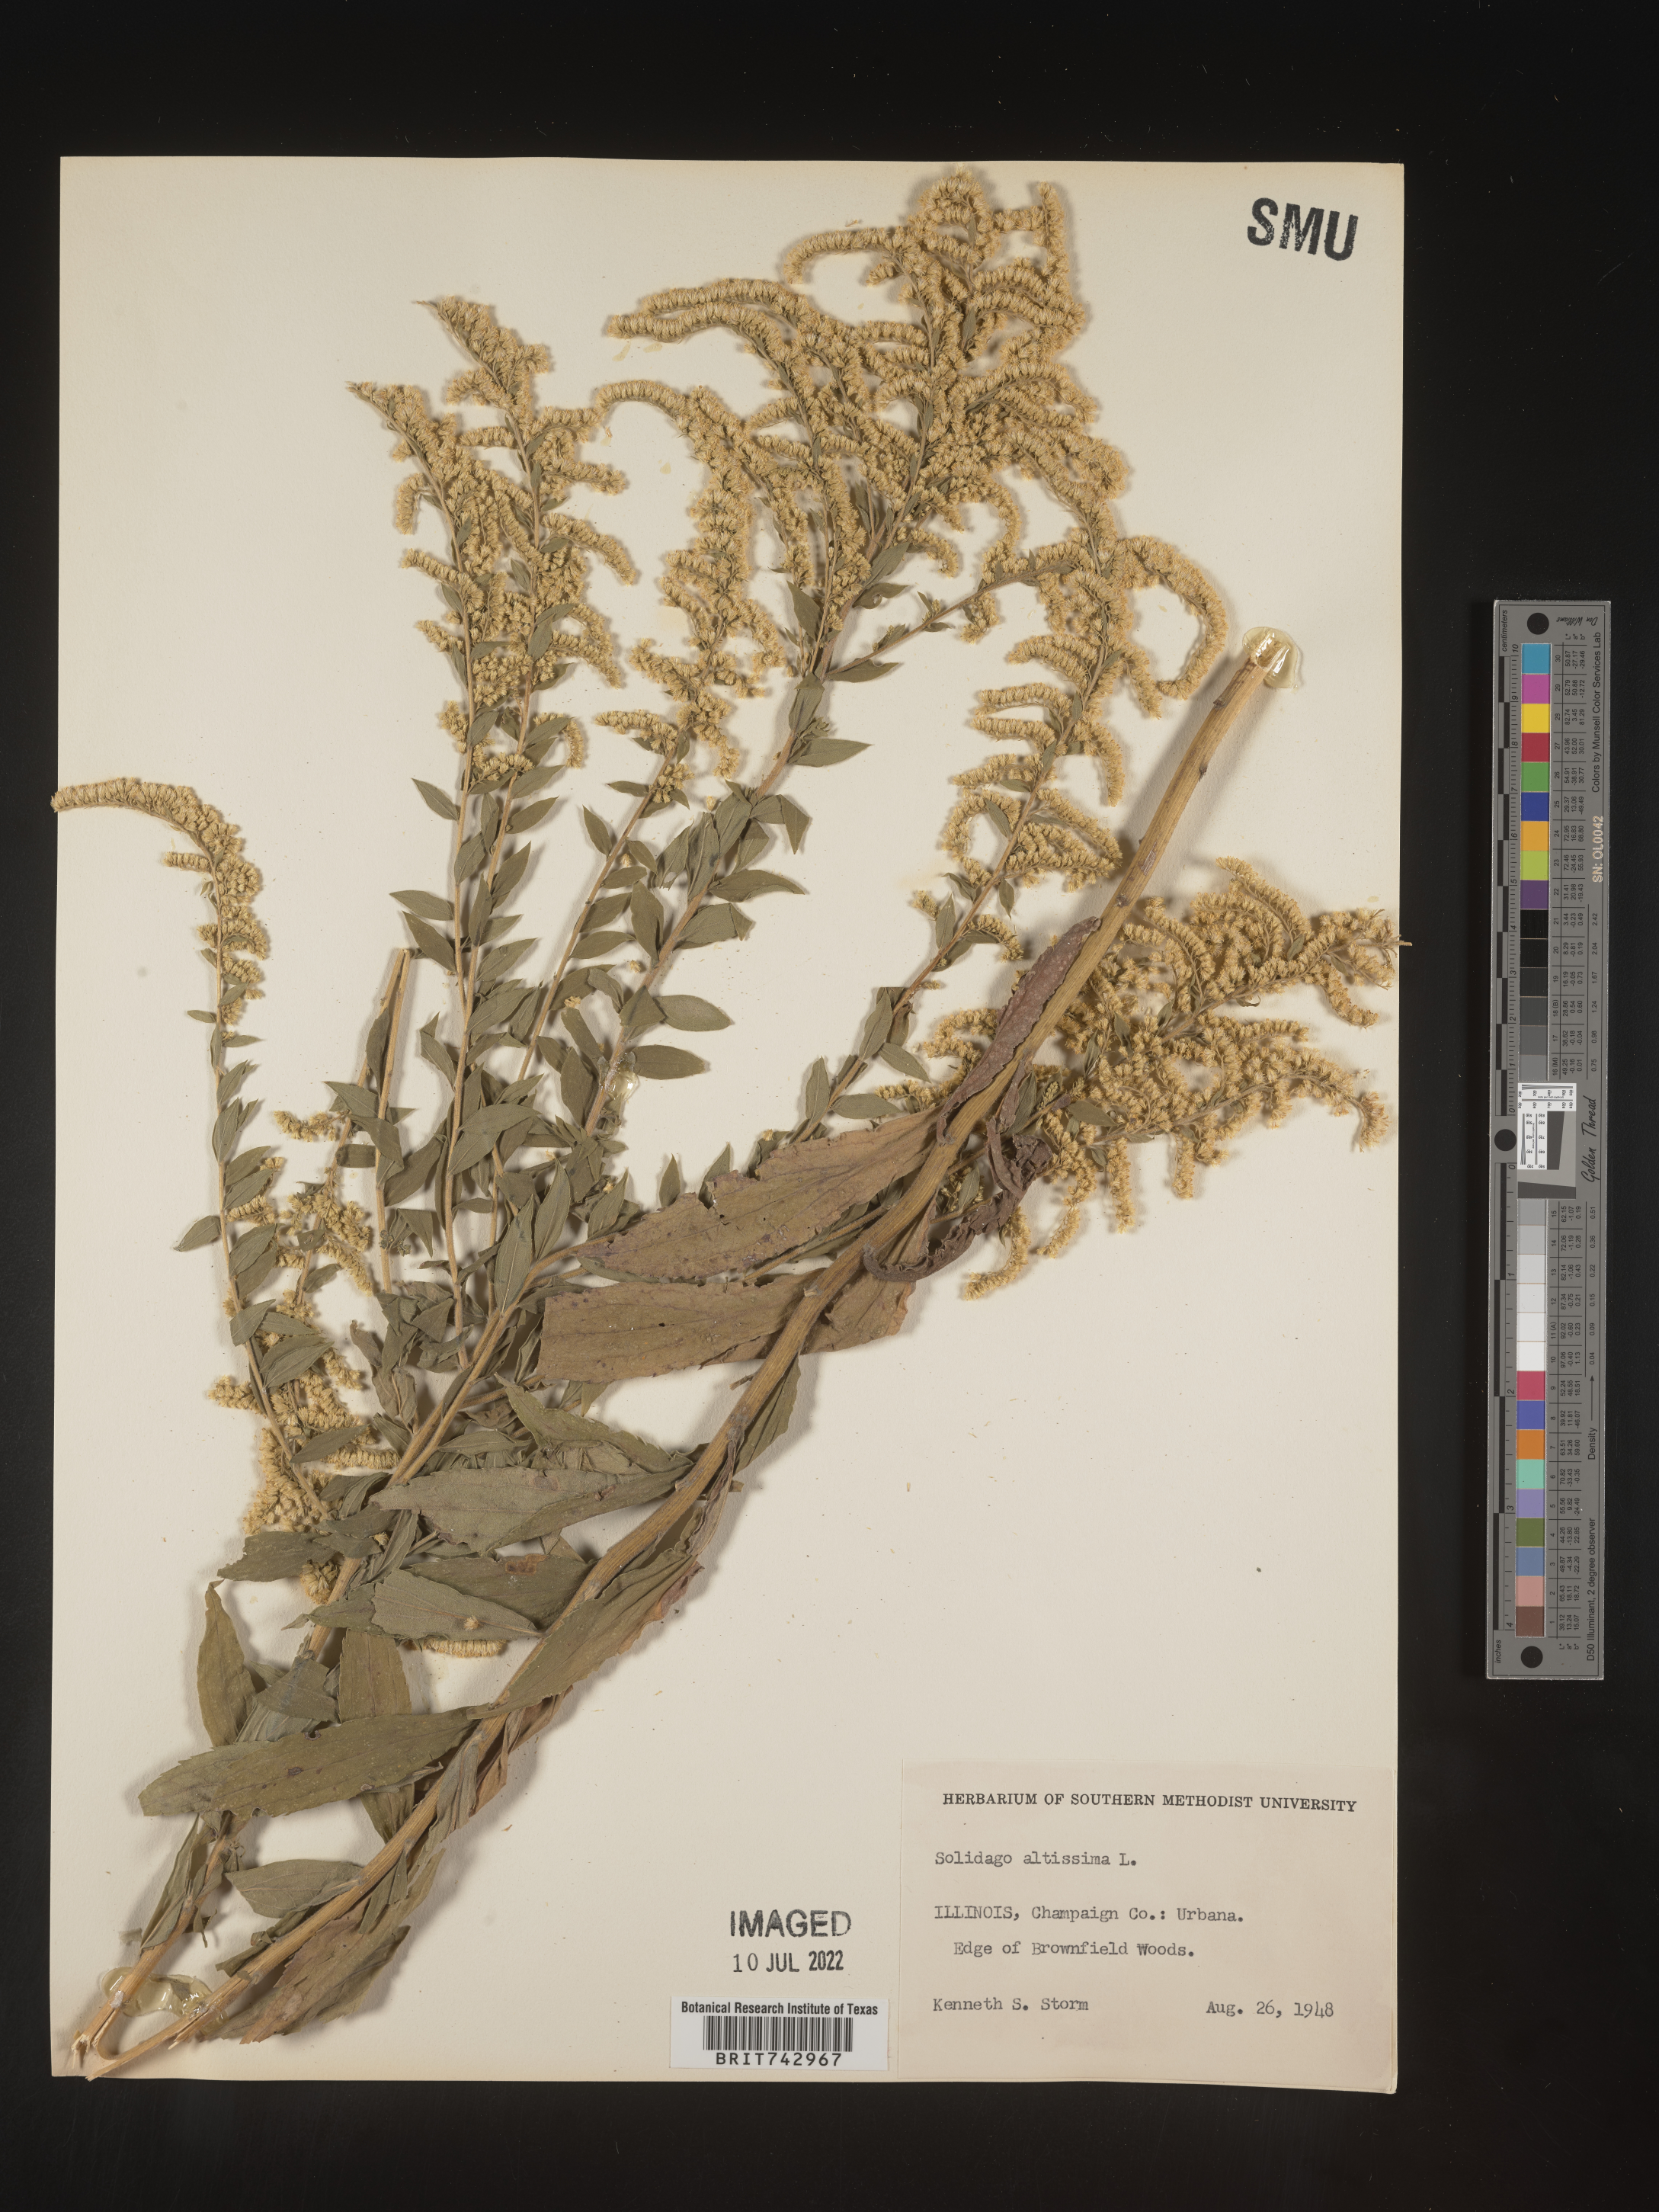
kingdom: Plantae
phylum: Tracheophyta
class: Magnoliopsida
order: Asterales
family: Asteraceae
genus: Solidago
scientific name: Solidago altissima
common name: Late goldenrod
